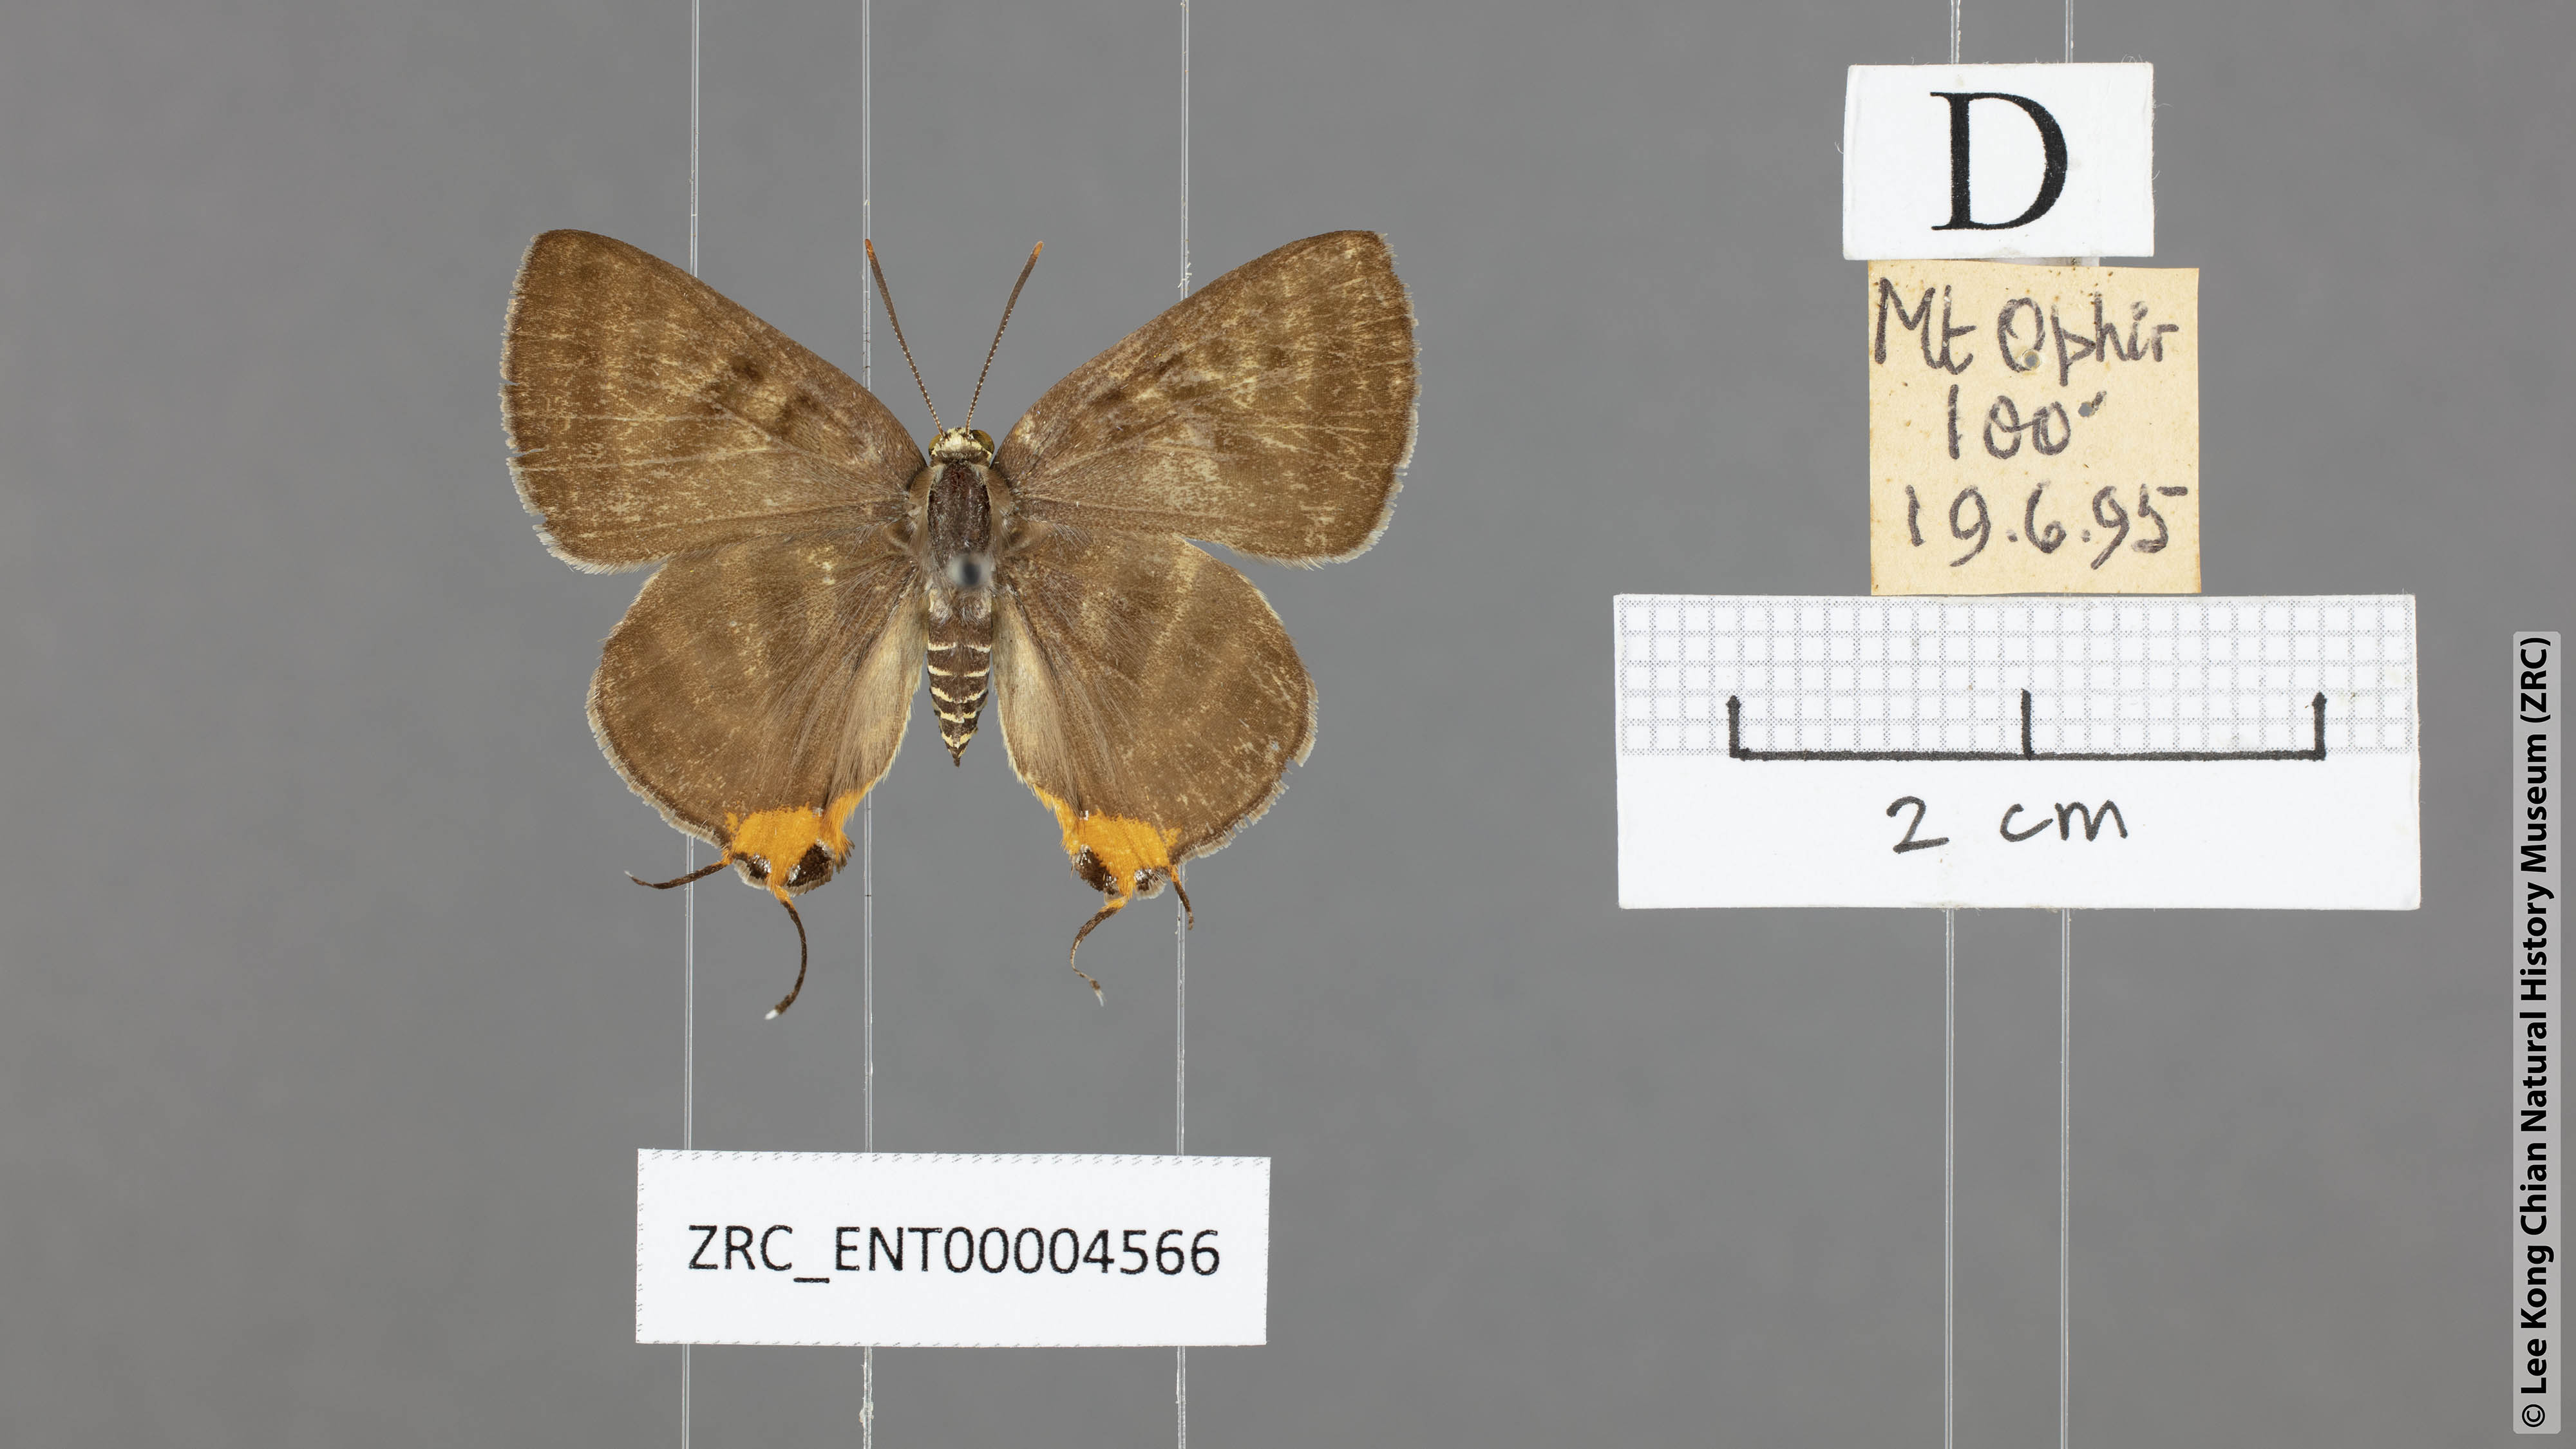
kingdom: Animalia
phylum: Arthropoda
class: Insecta
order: Lepidoptera
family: Lycaenidae
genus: Spindasis
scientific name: Spindasis syama
